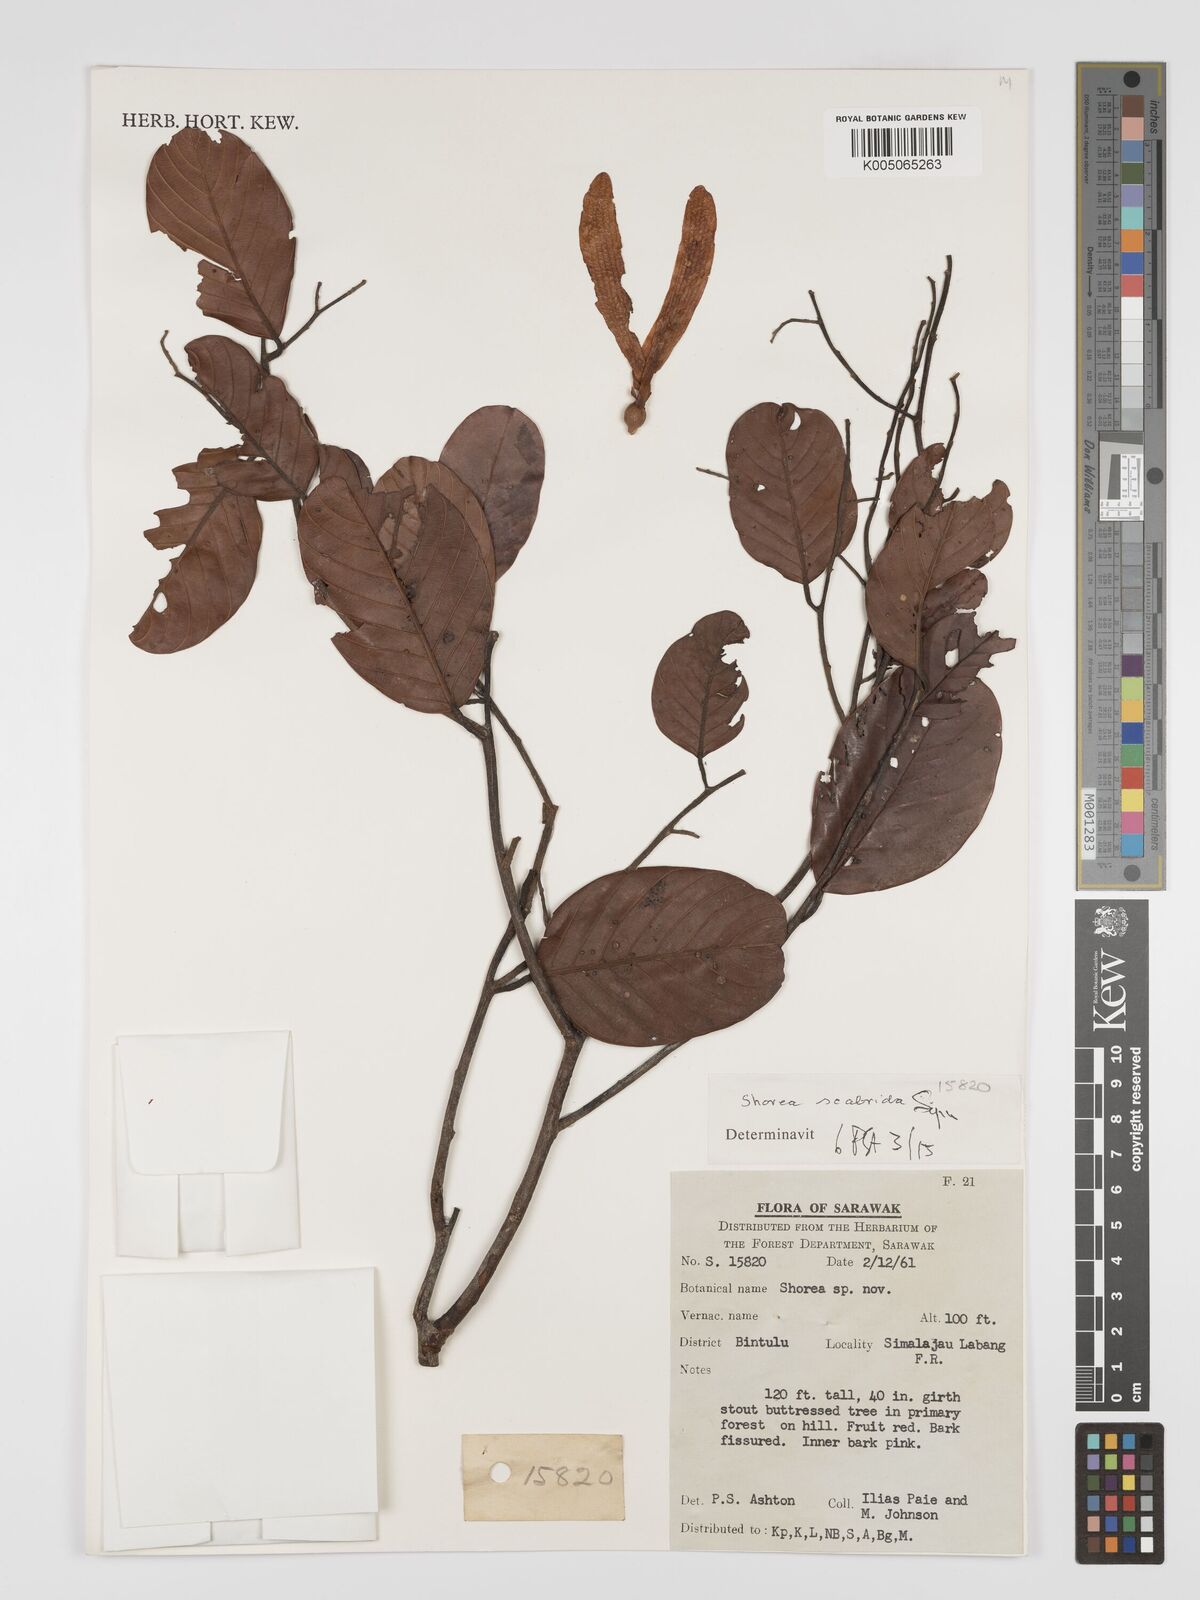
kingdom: Plantae
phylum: Tracheophyta
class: Magnoliopsida
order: Malvales
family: Dipterocarpaceae
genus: Shorea
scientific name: Shorea scabrida
